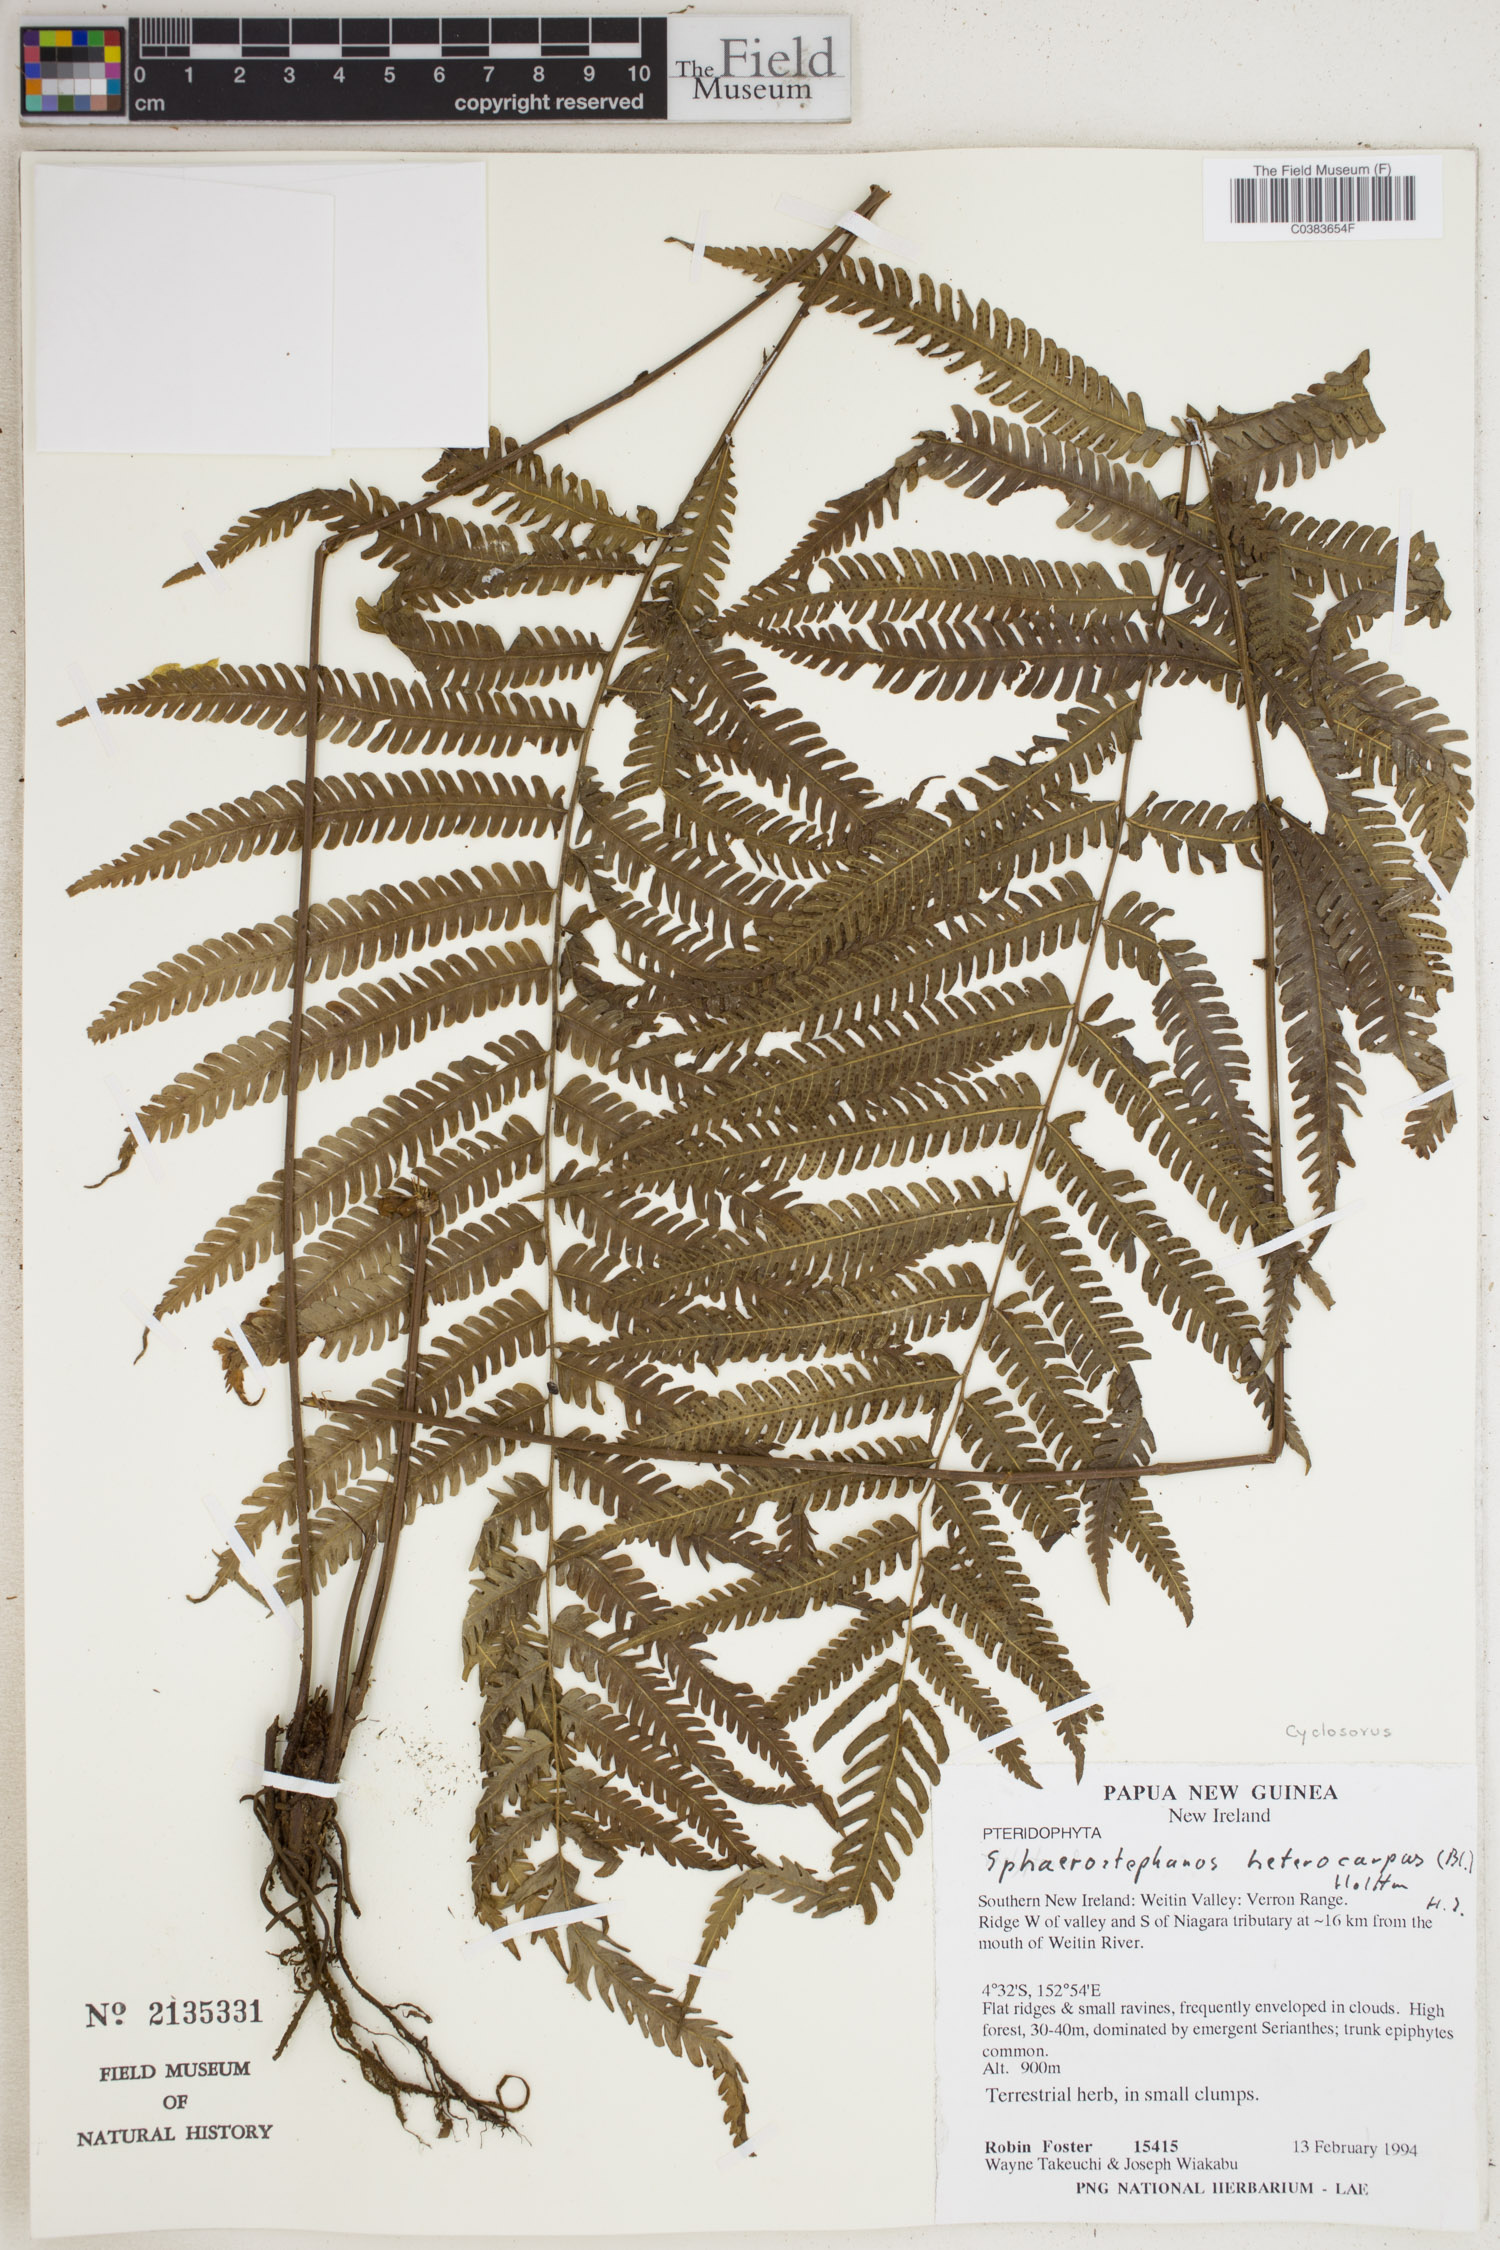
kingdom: Plantae
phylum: Tracheophyta
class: Polypodiopsida
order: Polypodiales
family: Thelypteridaceae
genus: Sphaerostephanos
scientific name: Sphaerostephanos heterocarpus
